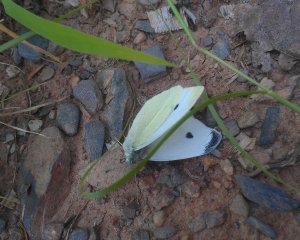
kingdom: Animalia
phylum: Arthropoda
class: Insecta
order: Lepidoptera
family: Pieridae
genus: Pieris
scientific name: Pieris rapae
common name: Cabbage White
